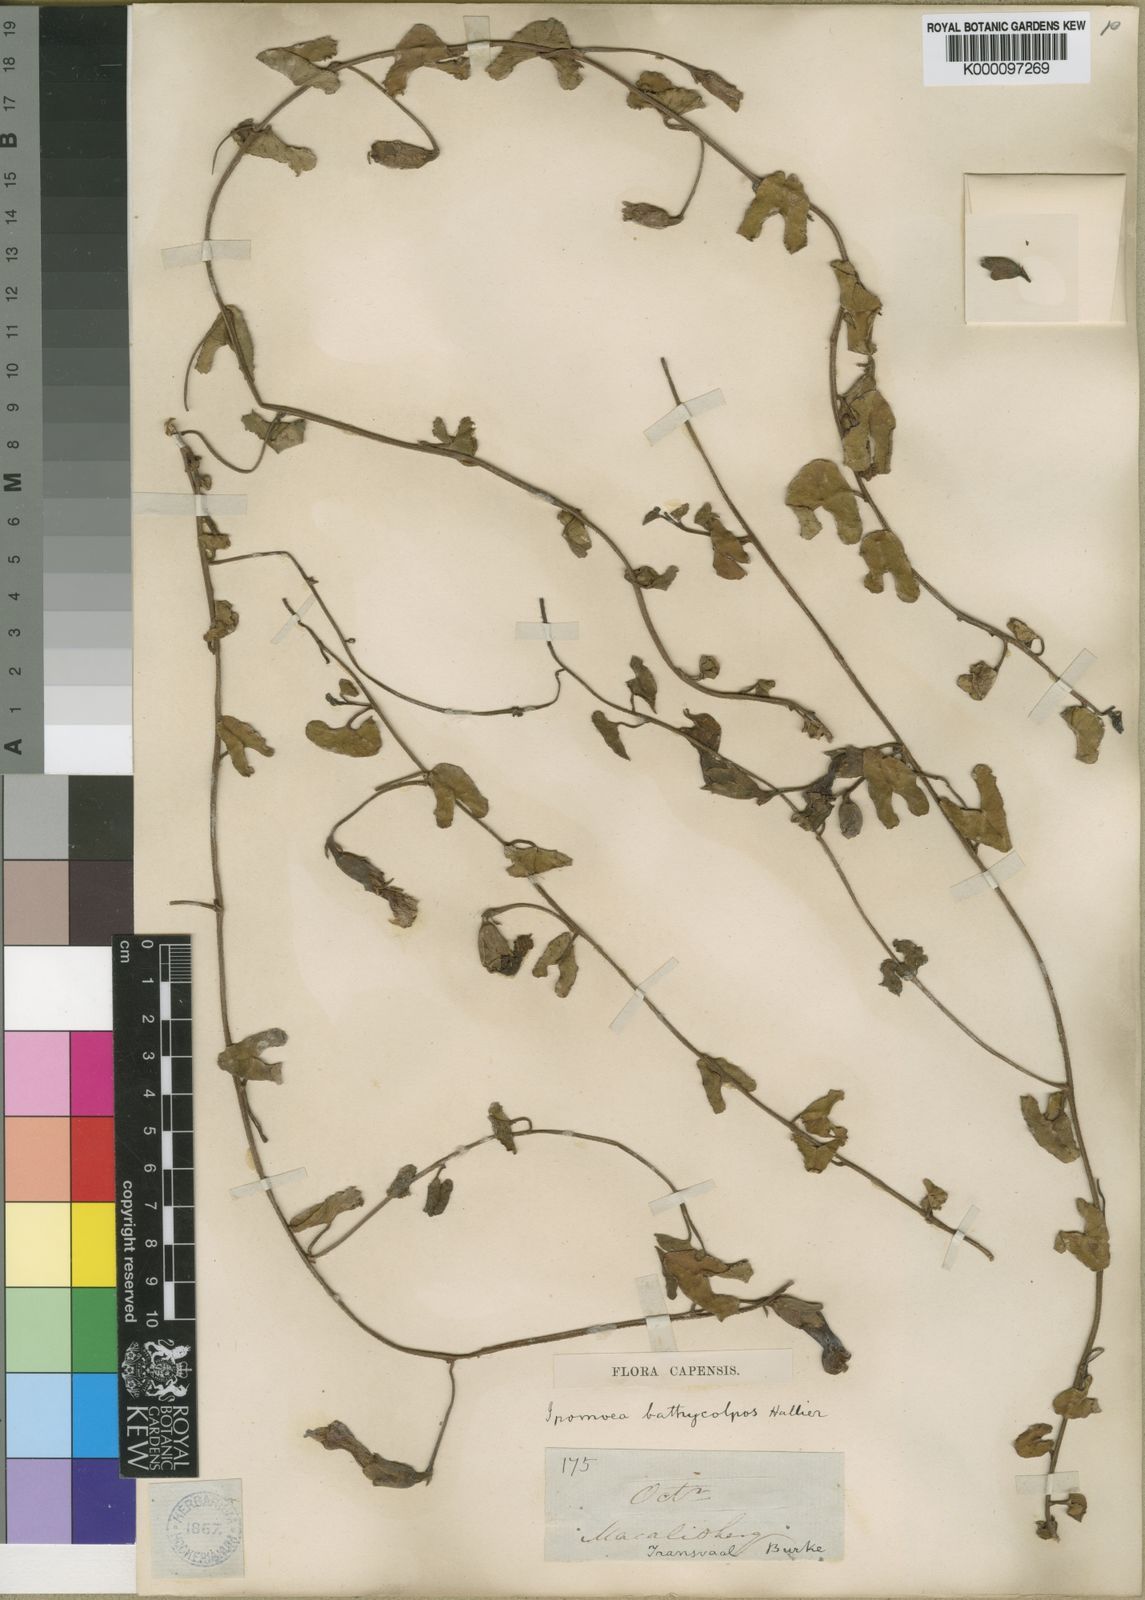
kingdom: Plantae
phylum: Tracheophyta
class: Magnoliopsida
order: Solanales
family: Convolvulaceae
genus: Ipomoea
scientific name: Ipomoea bathycolpos
